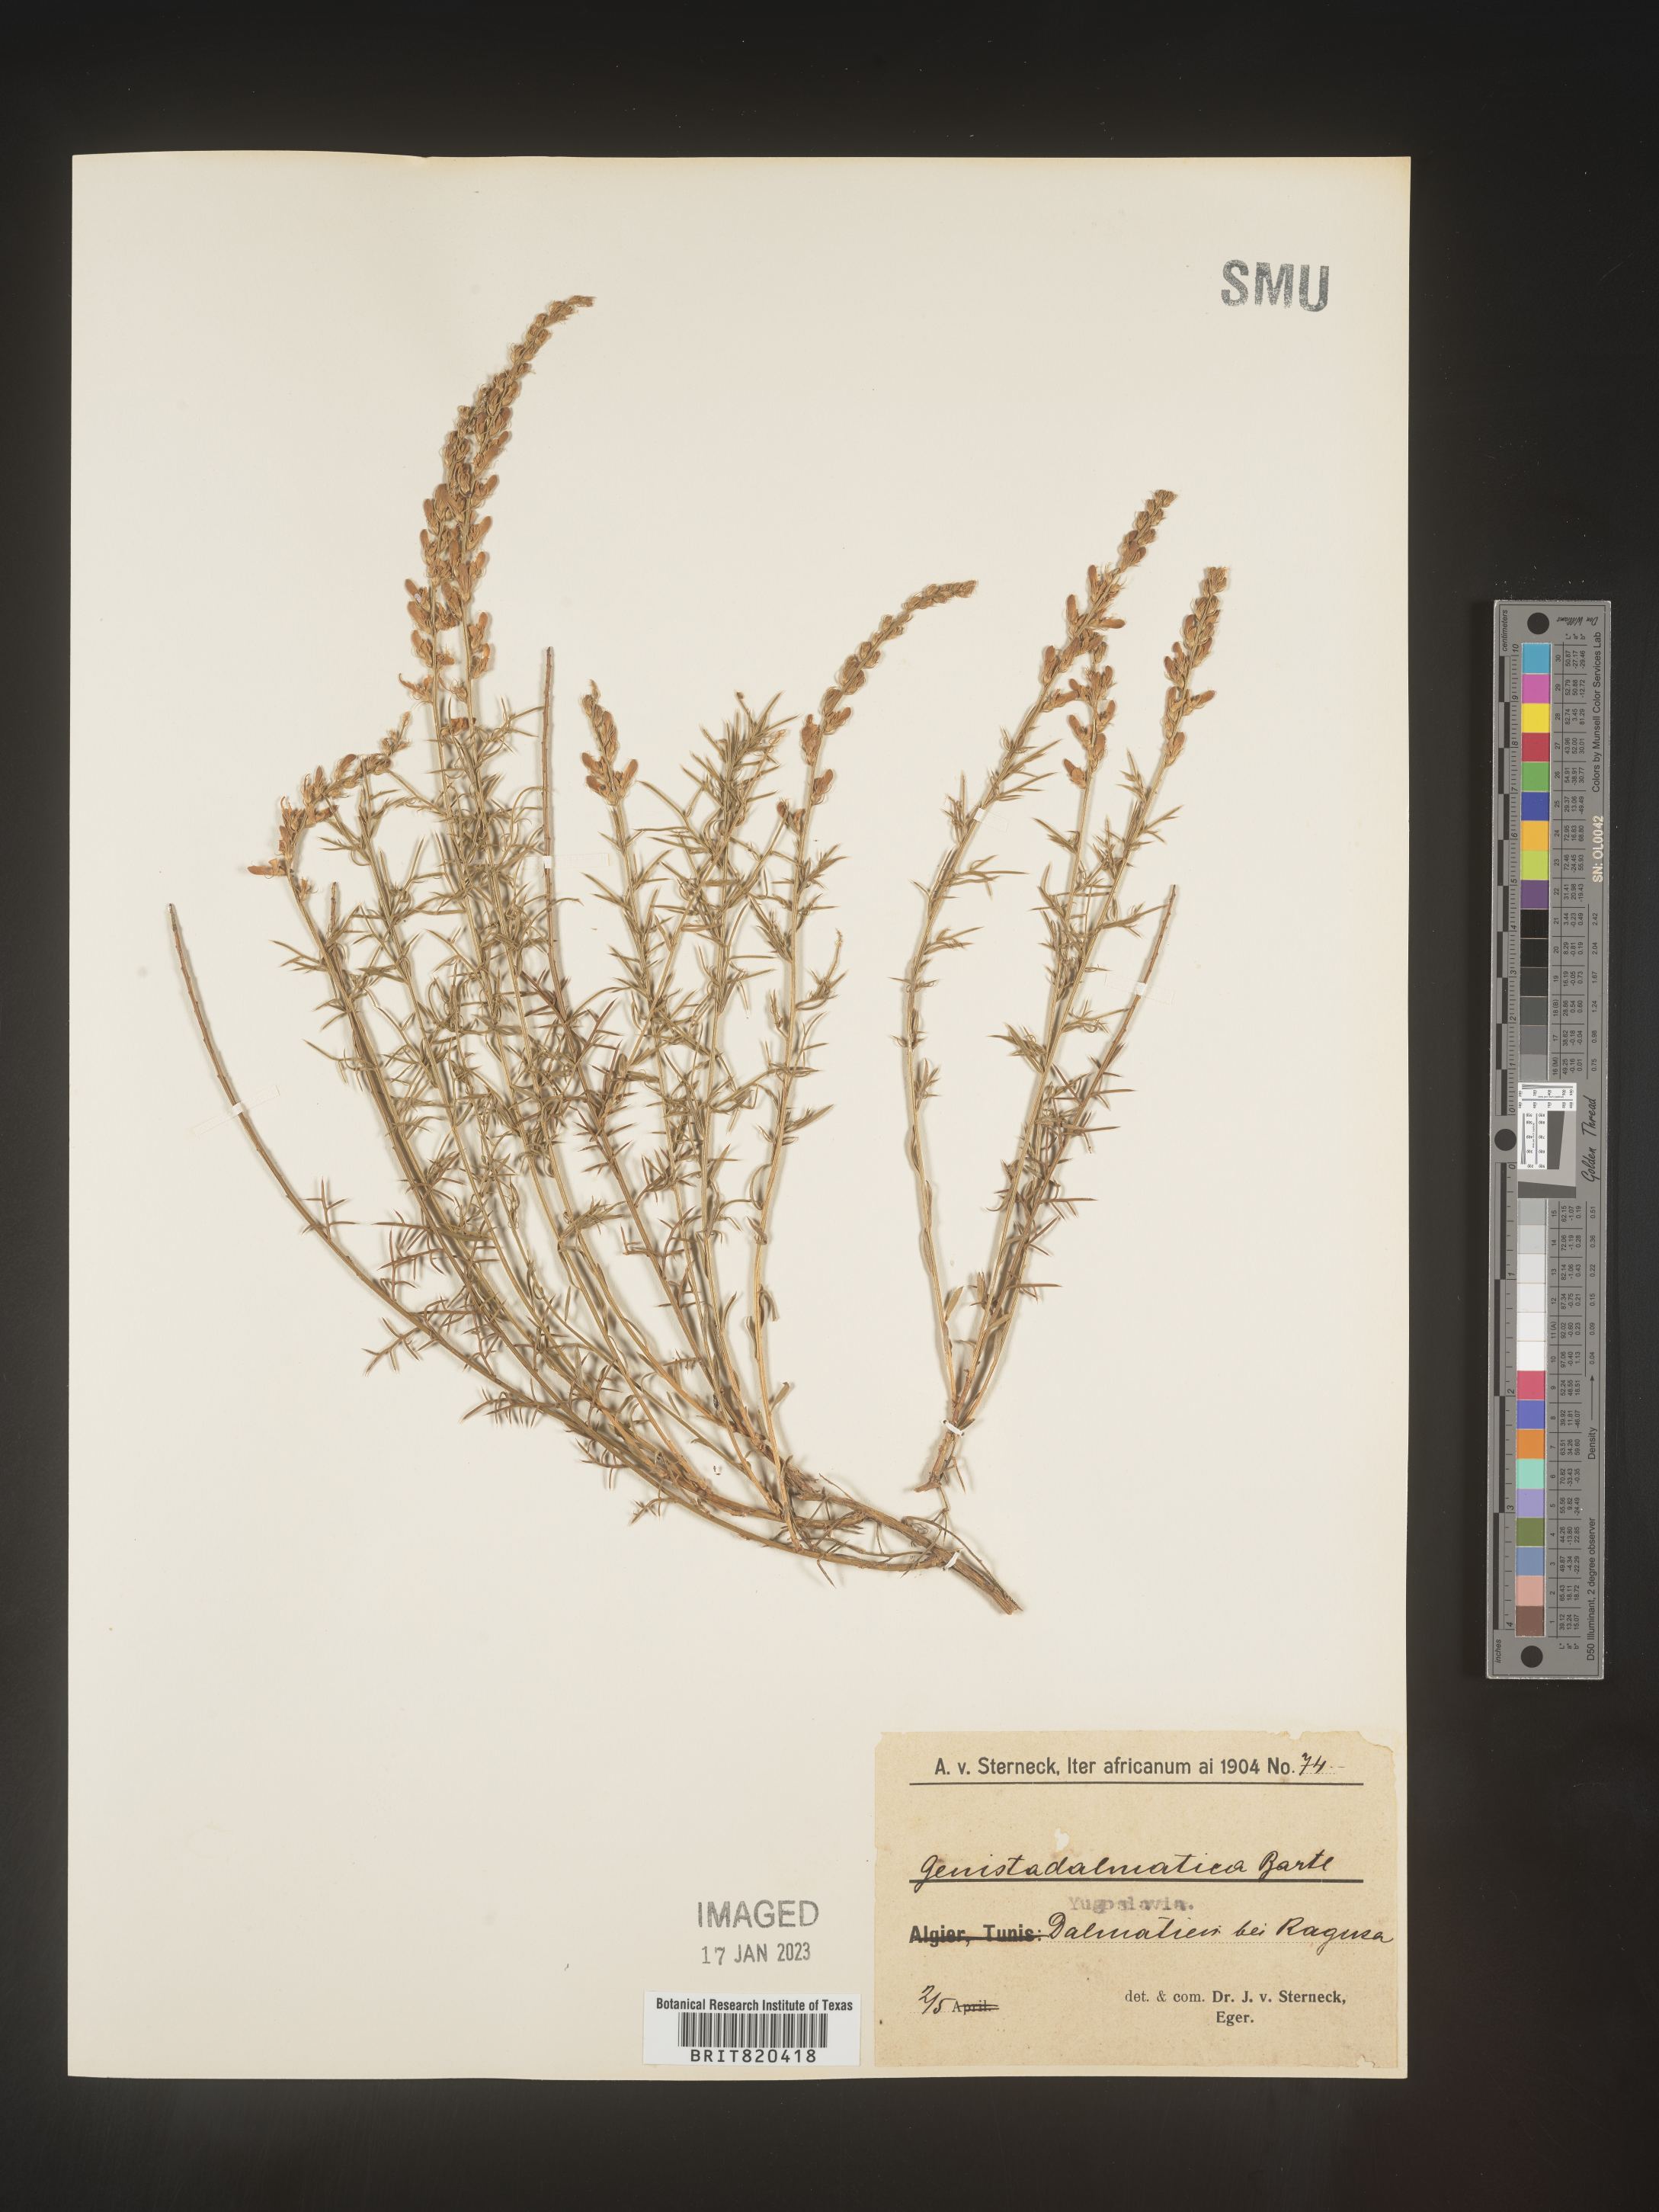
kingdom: Plantae
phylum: Tracheophyta
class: Magnoliopsida
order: Fabales
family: Fabaceae
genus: Genista
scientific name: Genista
